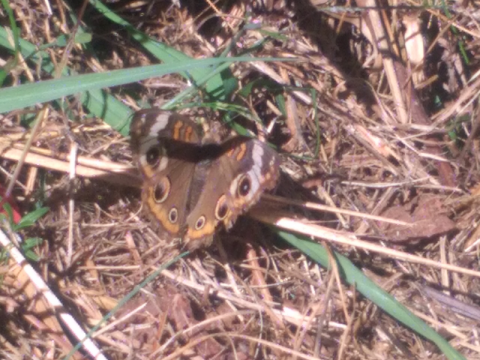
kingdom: Animalia
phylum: Arthropoda
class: Insecta
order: Lepidoptera
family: Nymphalidae
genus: Junonia
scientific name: Junonia coenia
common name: Common Buckeye
